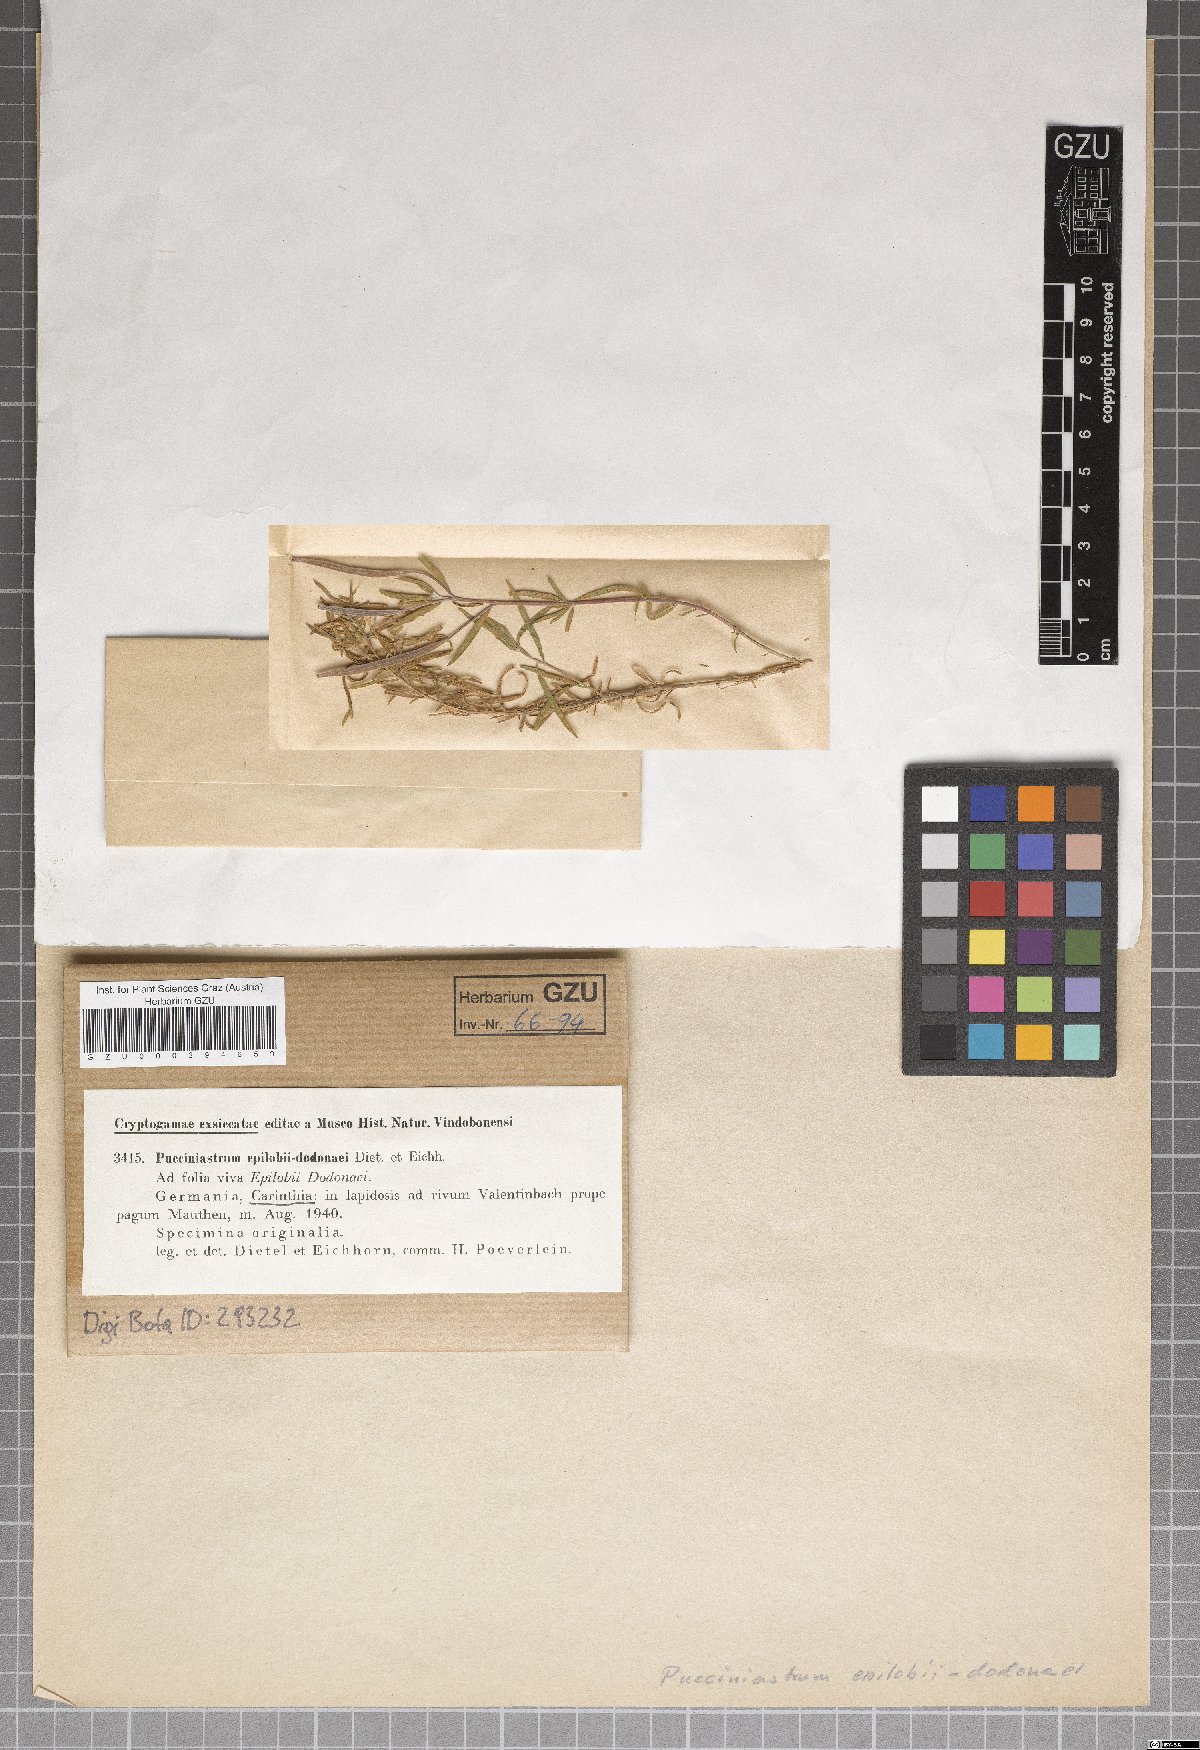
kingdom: Fungi
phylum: Basidiomycota
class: Pucciniomycetes
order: Pucciniales
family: Pucciniastraceae
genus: Pucciniastrum
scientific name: Pucciniastrum epilobii-dodonaei
